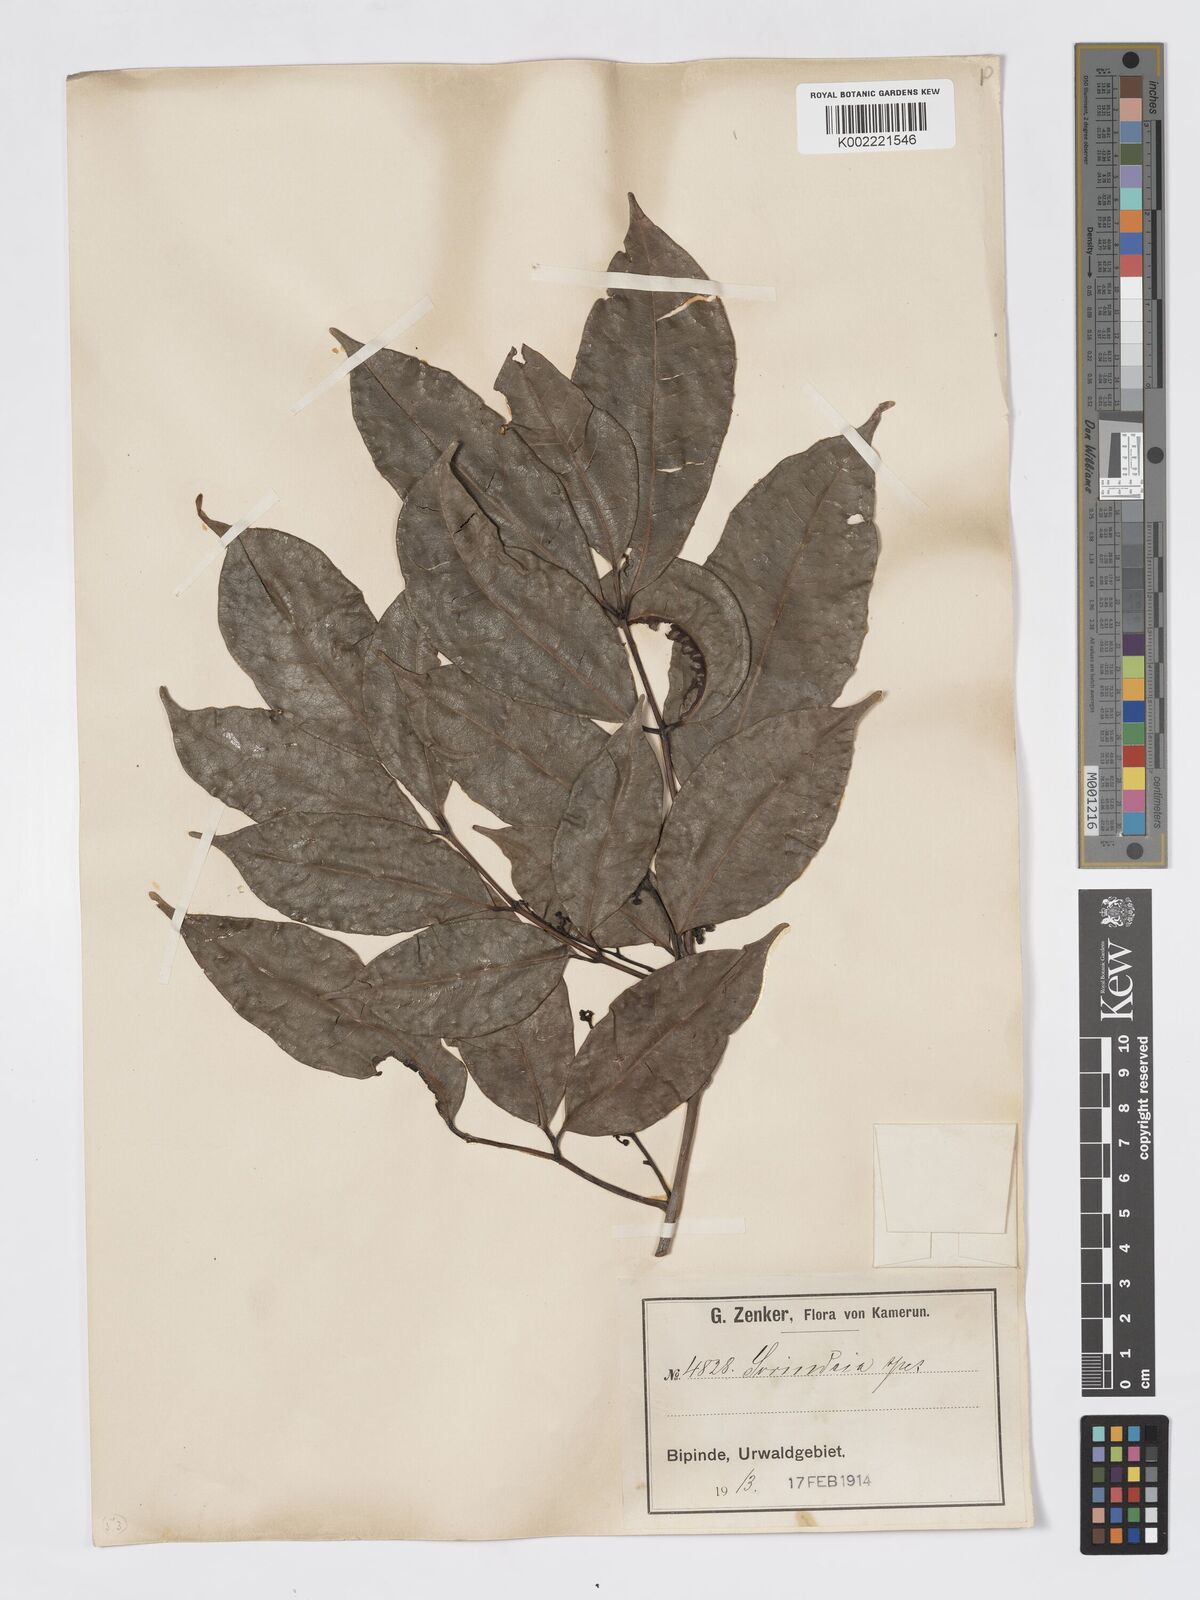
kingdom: Plantae
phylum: Tracheophyta
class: Magnoliopsida
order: Sapindales
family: Burseraceae
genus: Pachylobus
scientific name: Pachylobus trimerus
